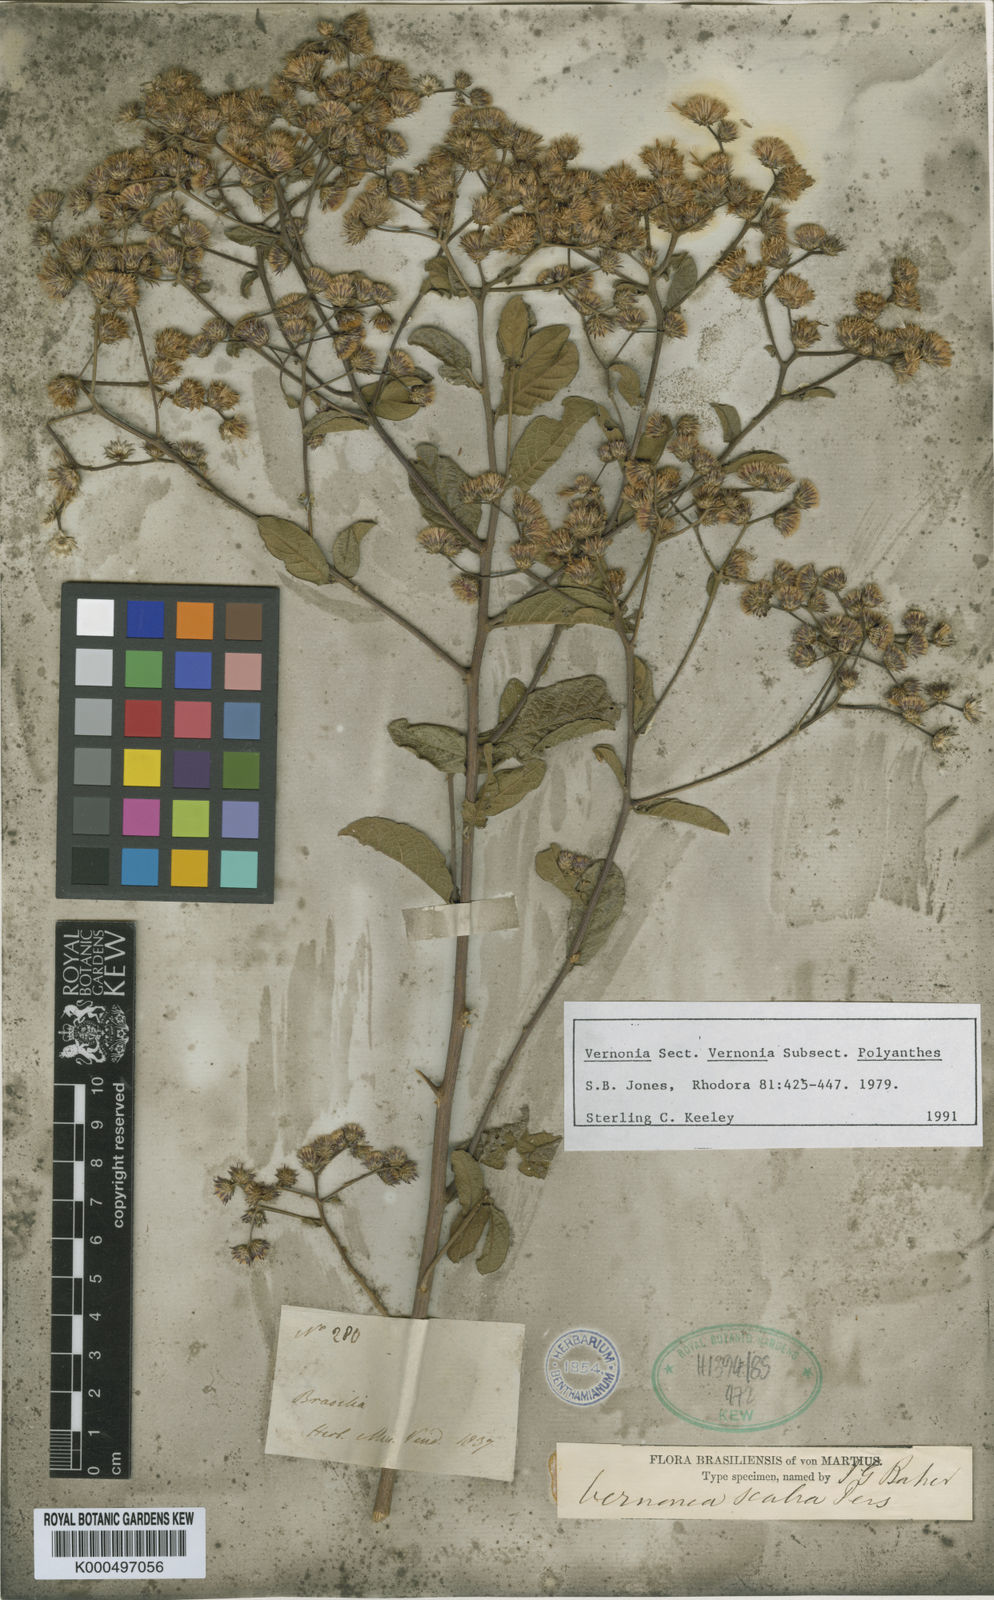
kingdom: Plantae
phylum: Tracheophyta
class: Magnoliopsida
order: Asterales
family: Asteraceae
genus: Vernonanthura
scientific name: Vernonanthura brasiliana
